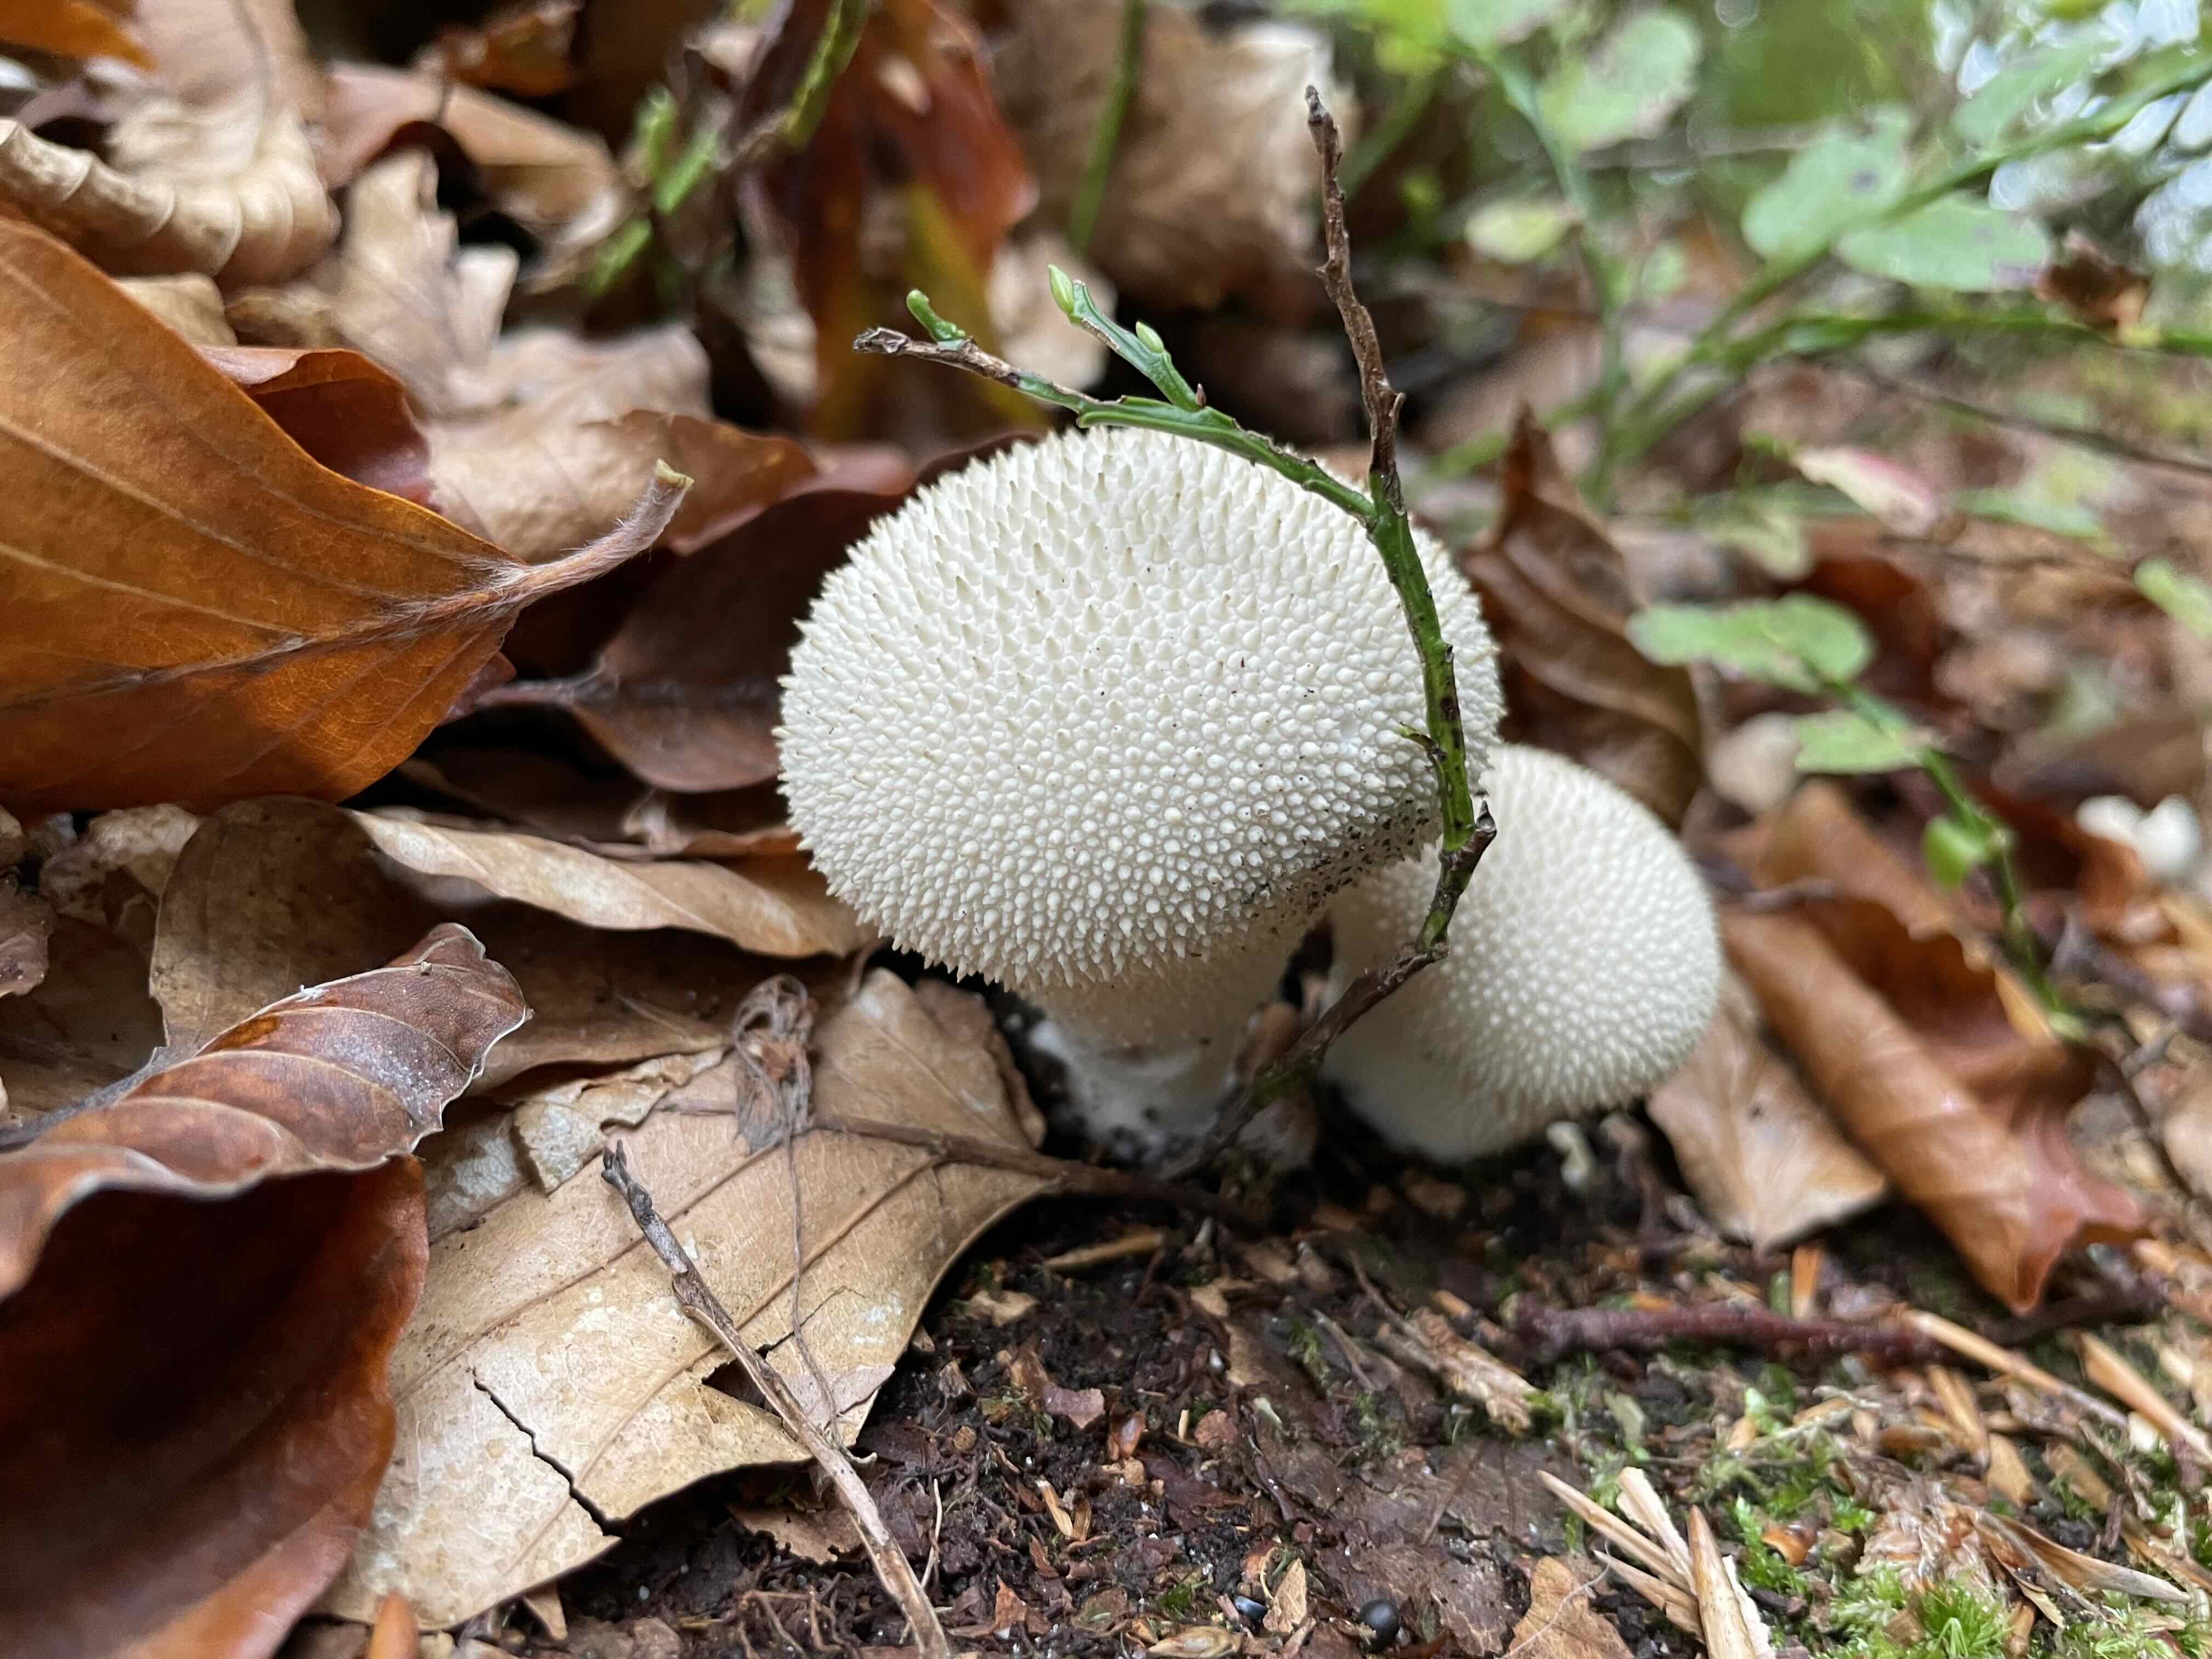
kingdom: Fungi
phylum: Basidiomycota
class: Agaricomycetes
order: Agaricales
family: Lycoperdaceae
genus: Lycoperdon
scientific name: Lycoperdon perlatum
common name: krystal-støvbold
